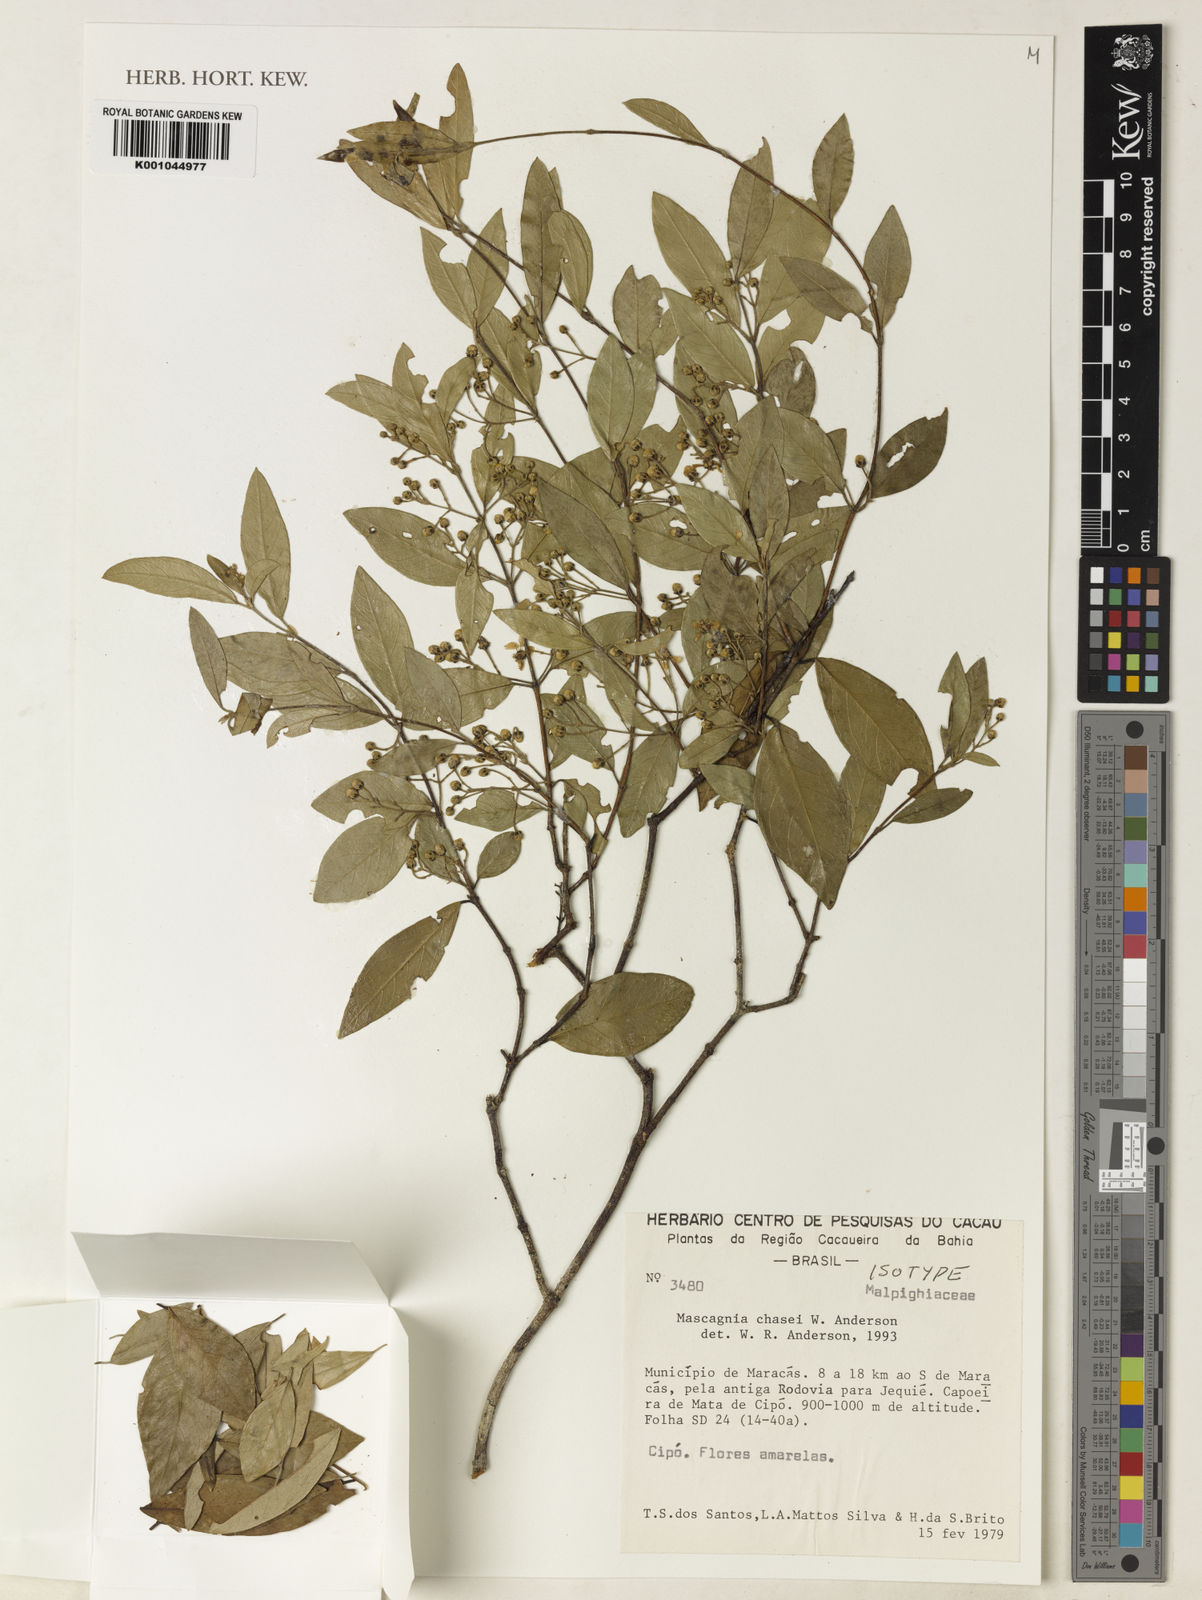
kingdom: Plantae
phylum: Tracheophyta
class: Magnoliopsida
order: Malpighiales
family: Malpighiaceae
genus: Carolus
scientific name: Carolus chasei
